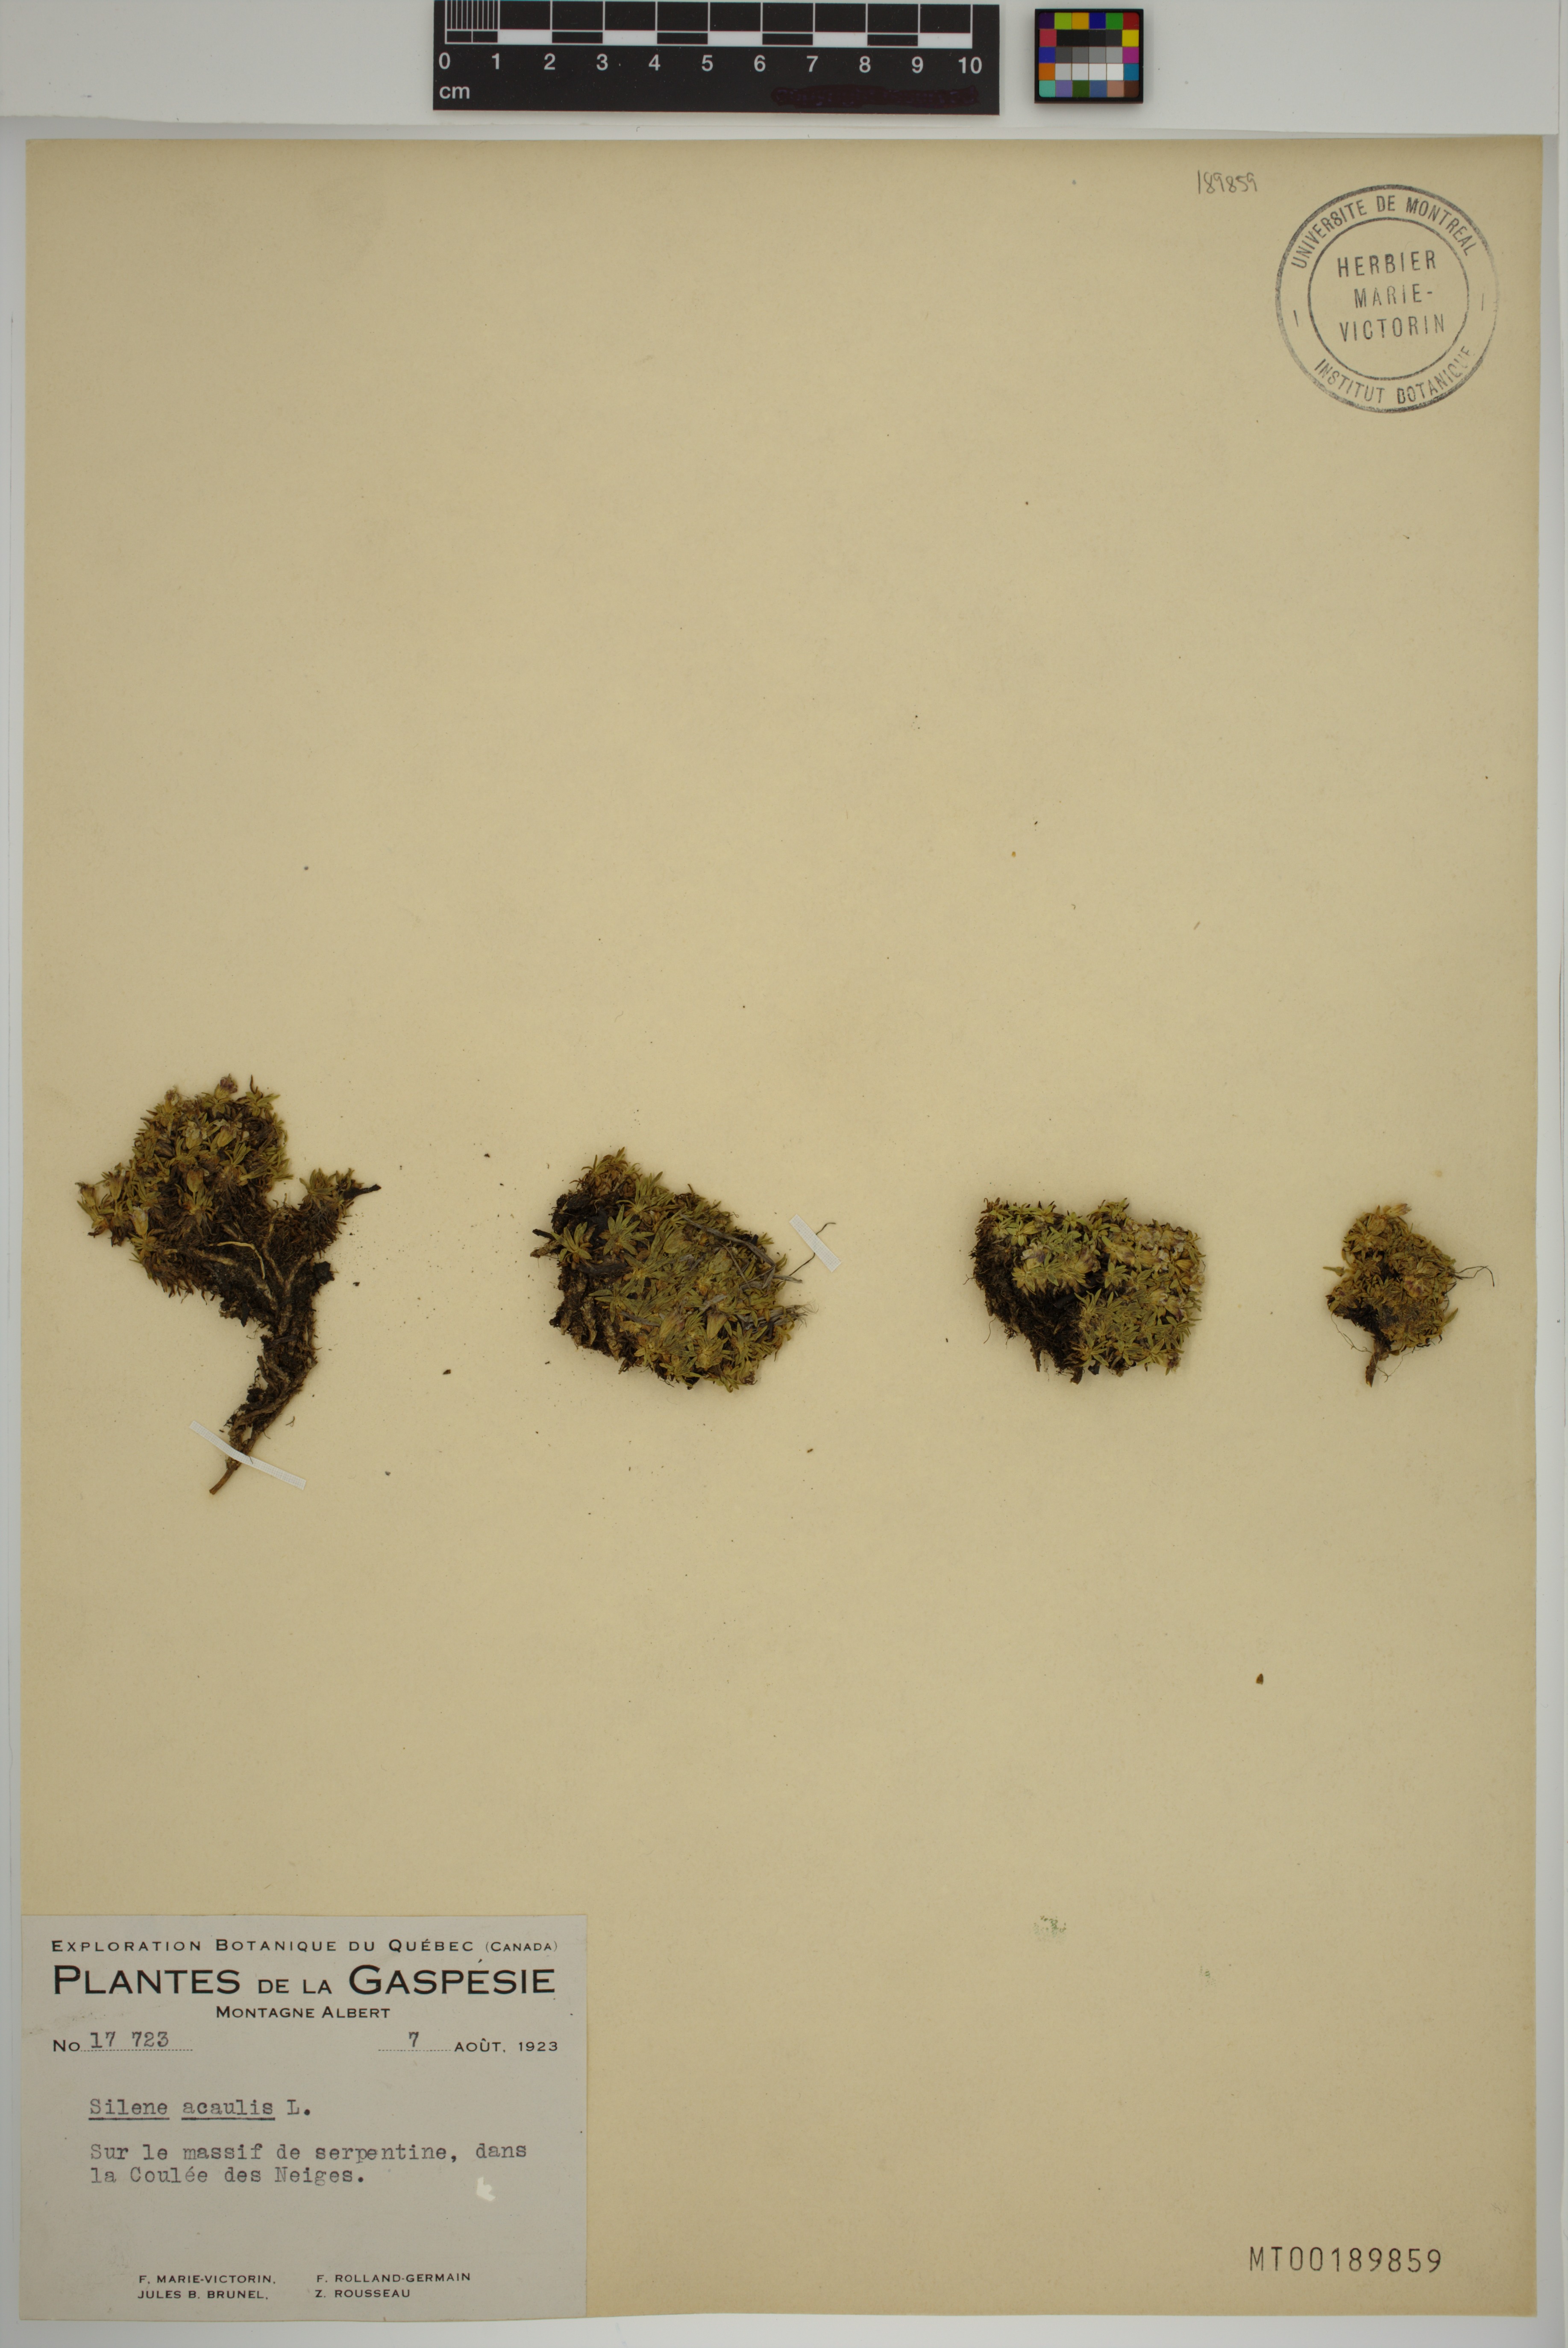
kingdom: Plantae
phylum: Tracheophyta
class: Magnoliopsida
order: Caryophyllales
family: Caryophyllaceae
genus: Silene
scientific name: Silene acaulis
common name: Moss campion
